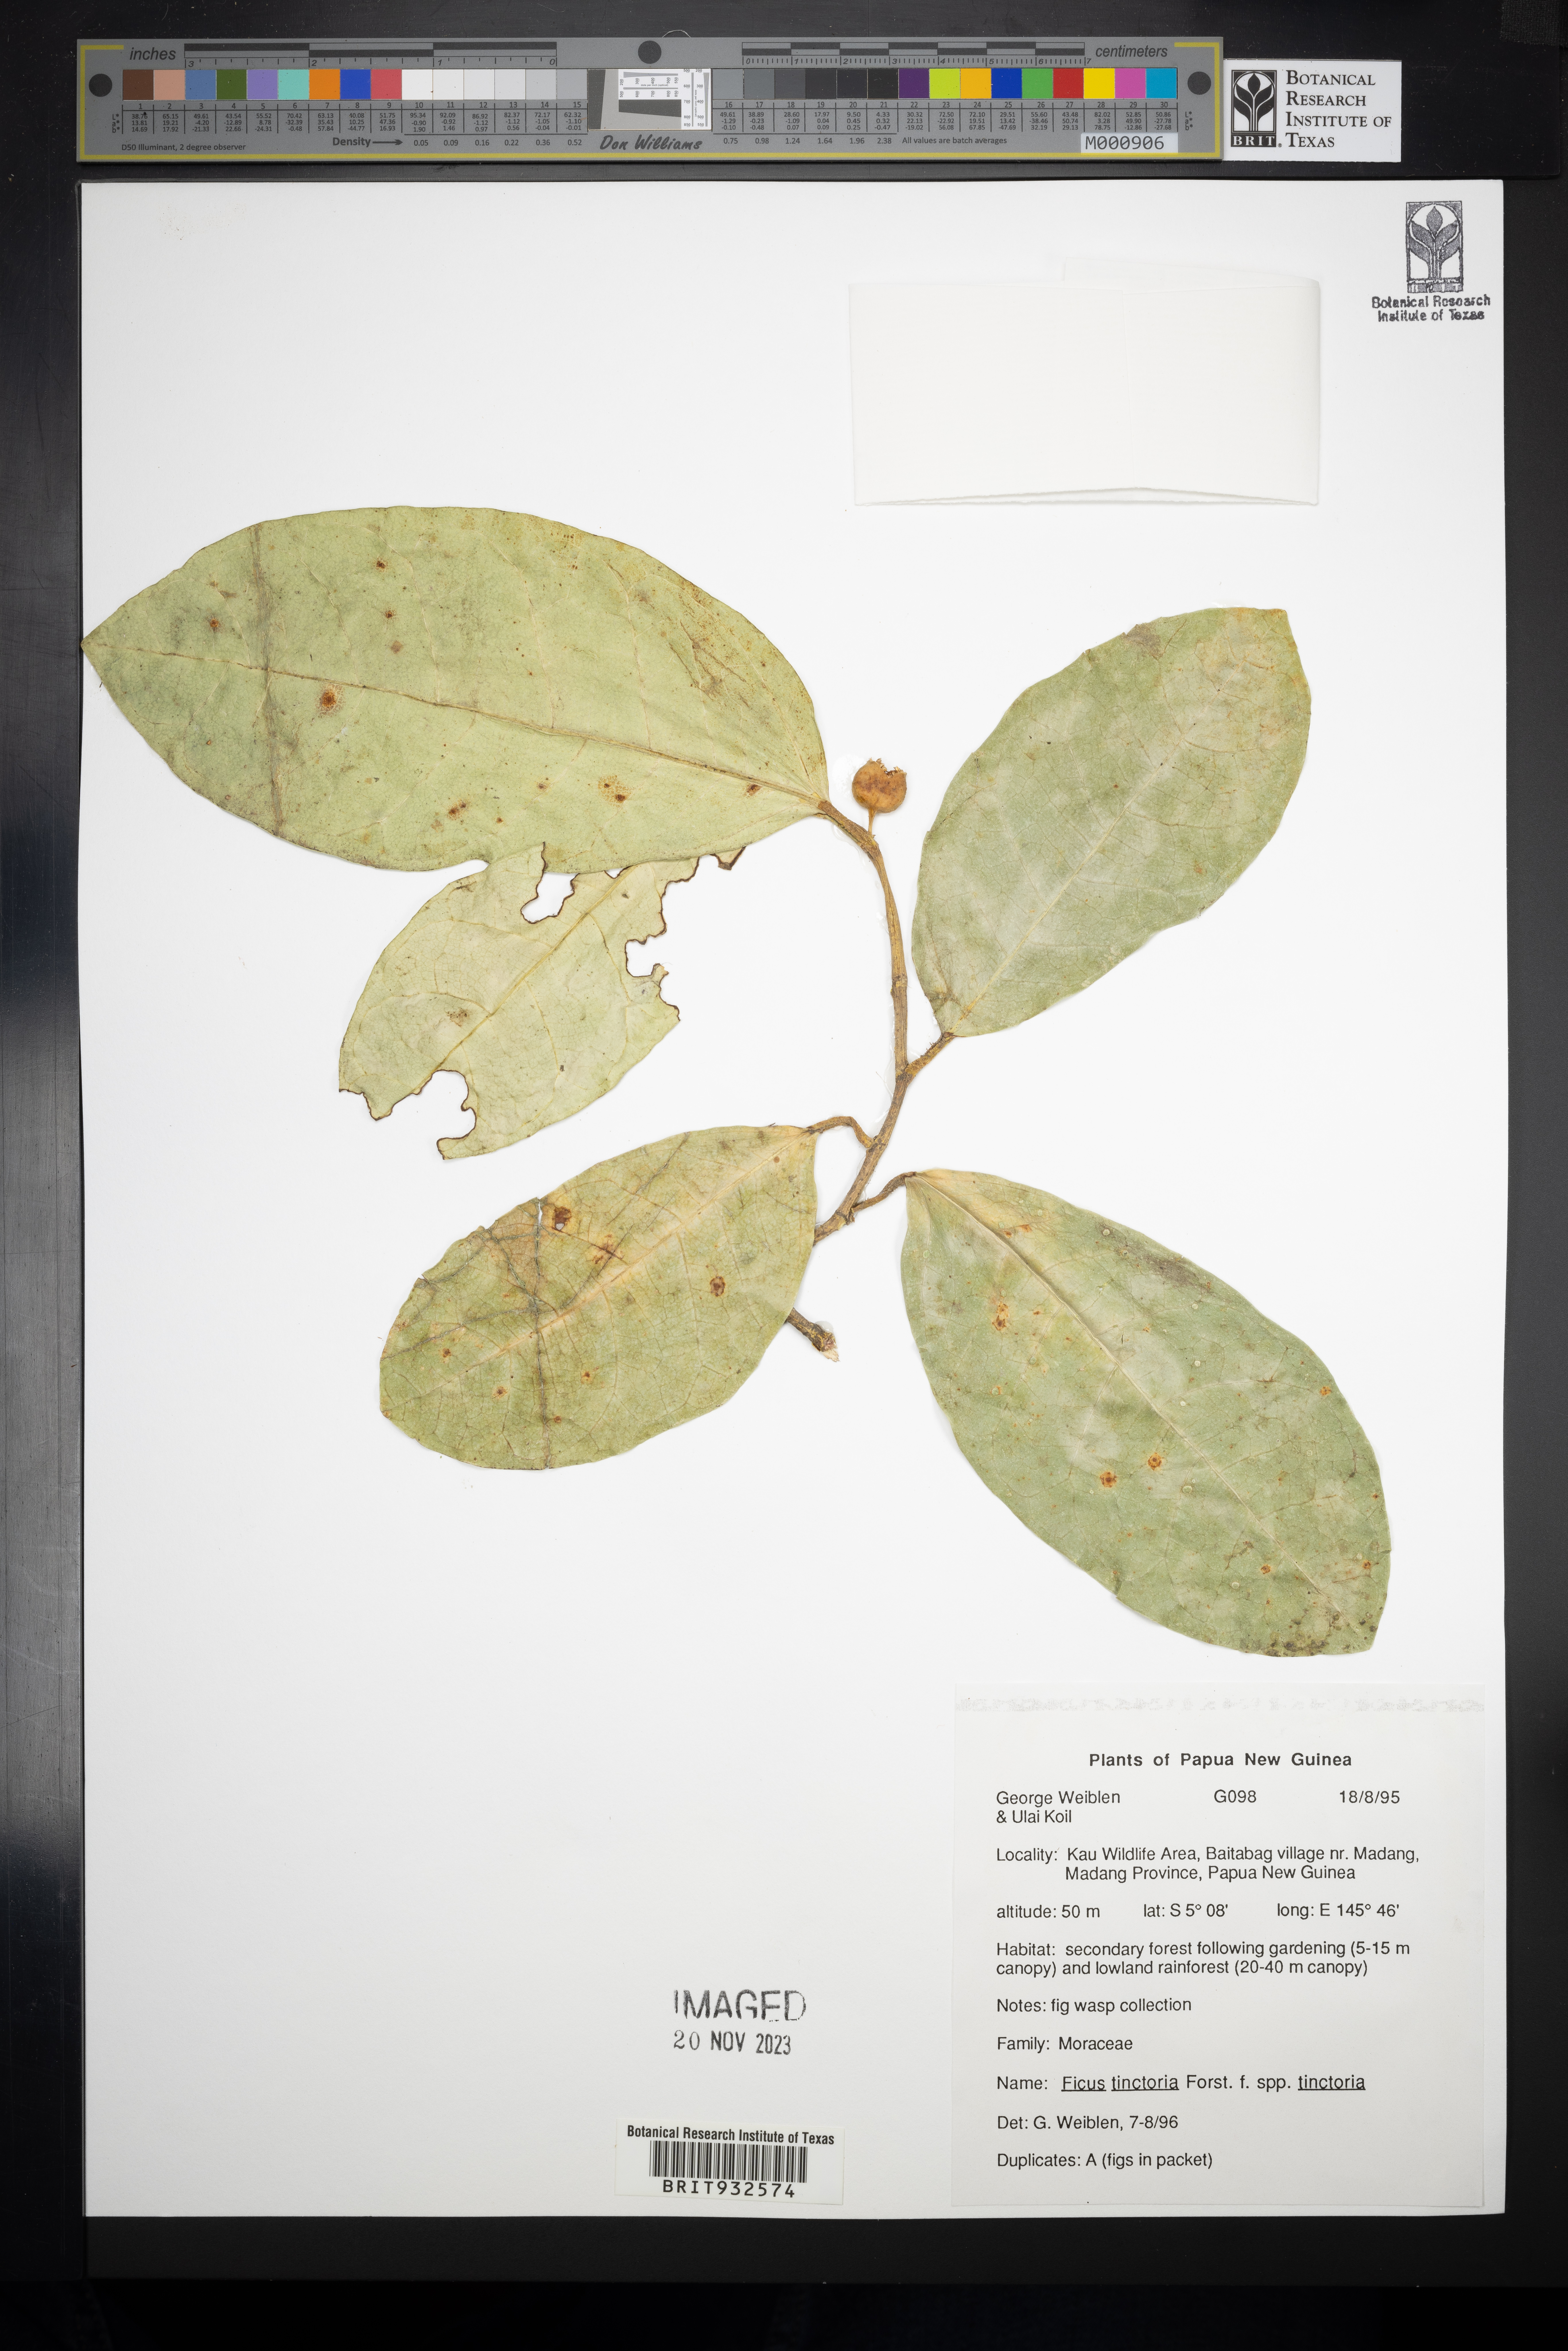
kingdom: Plantae
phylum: Tracheophyta
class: Magnoliopsida
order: Rosales
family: Moraceae
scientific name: Moraceae
